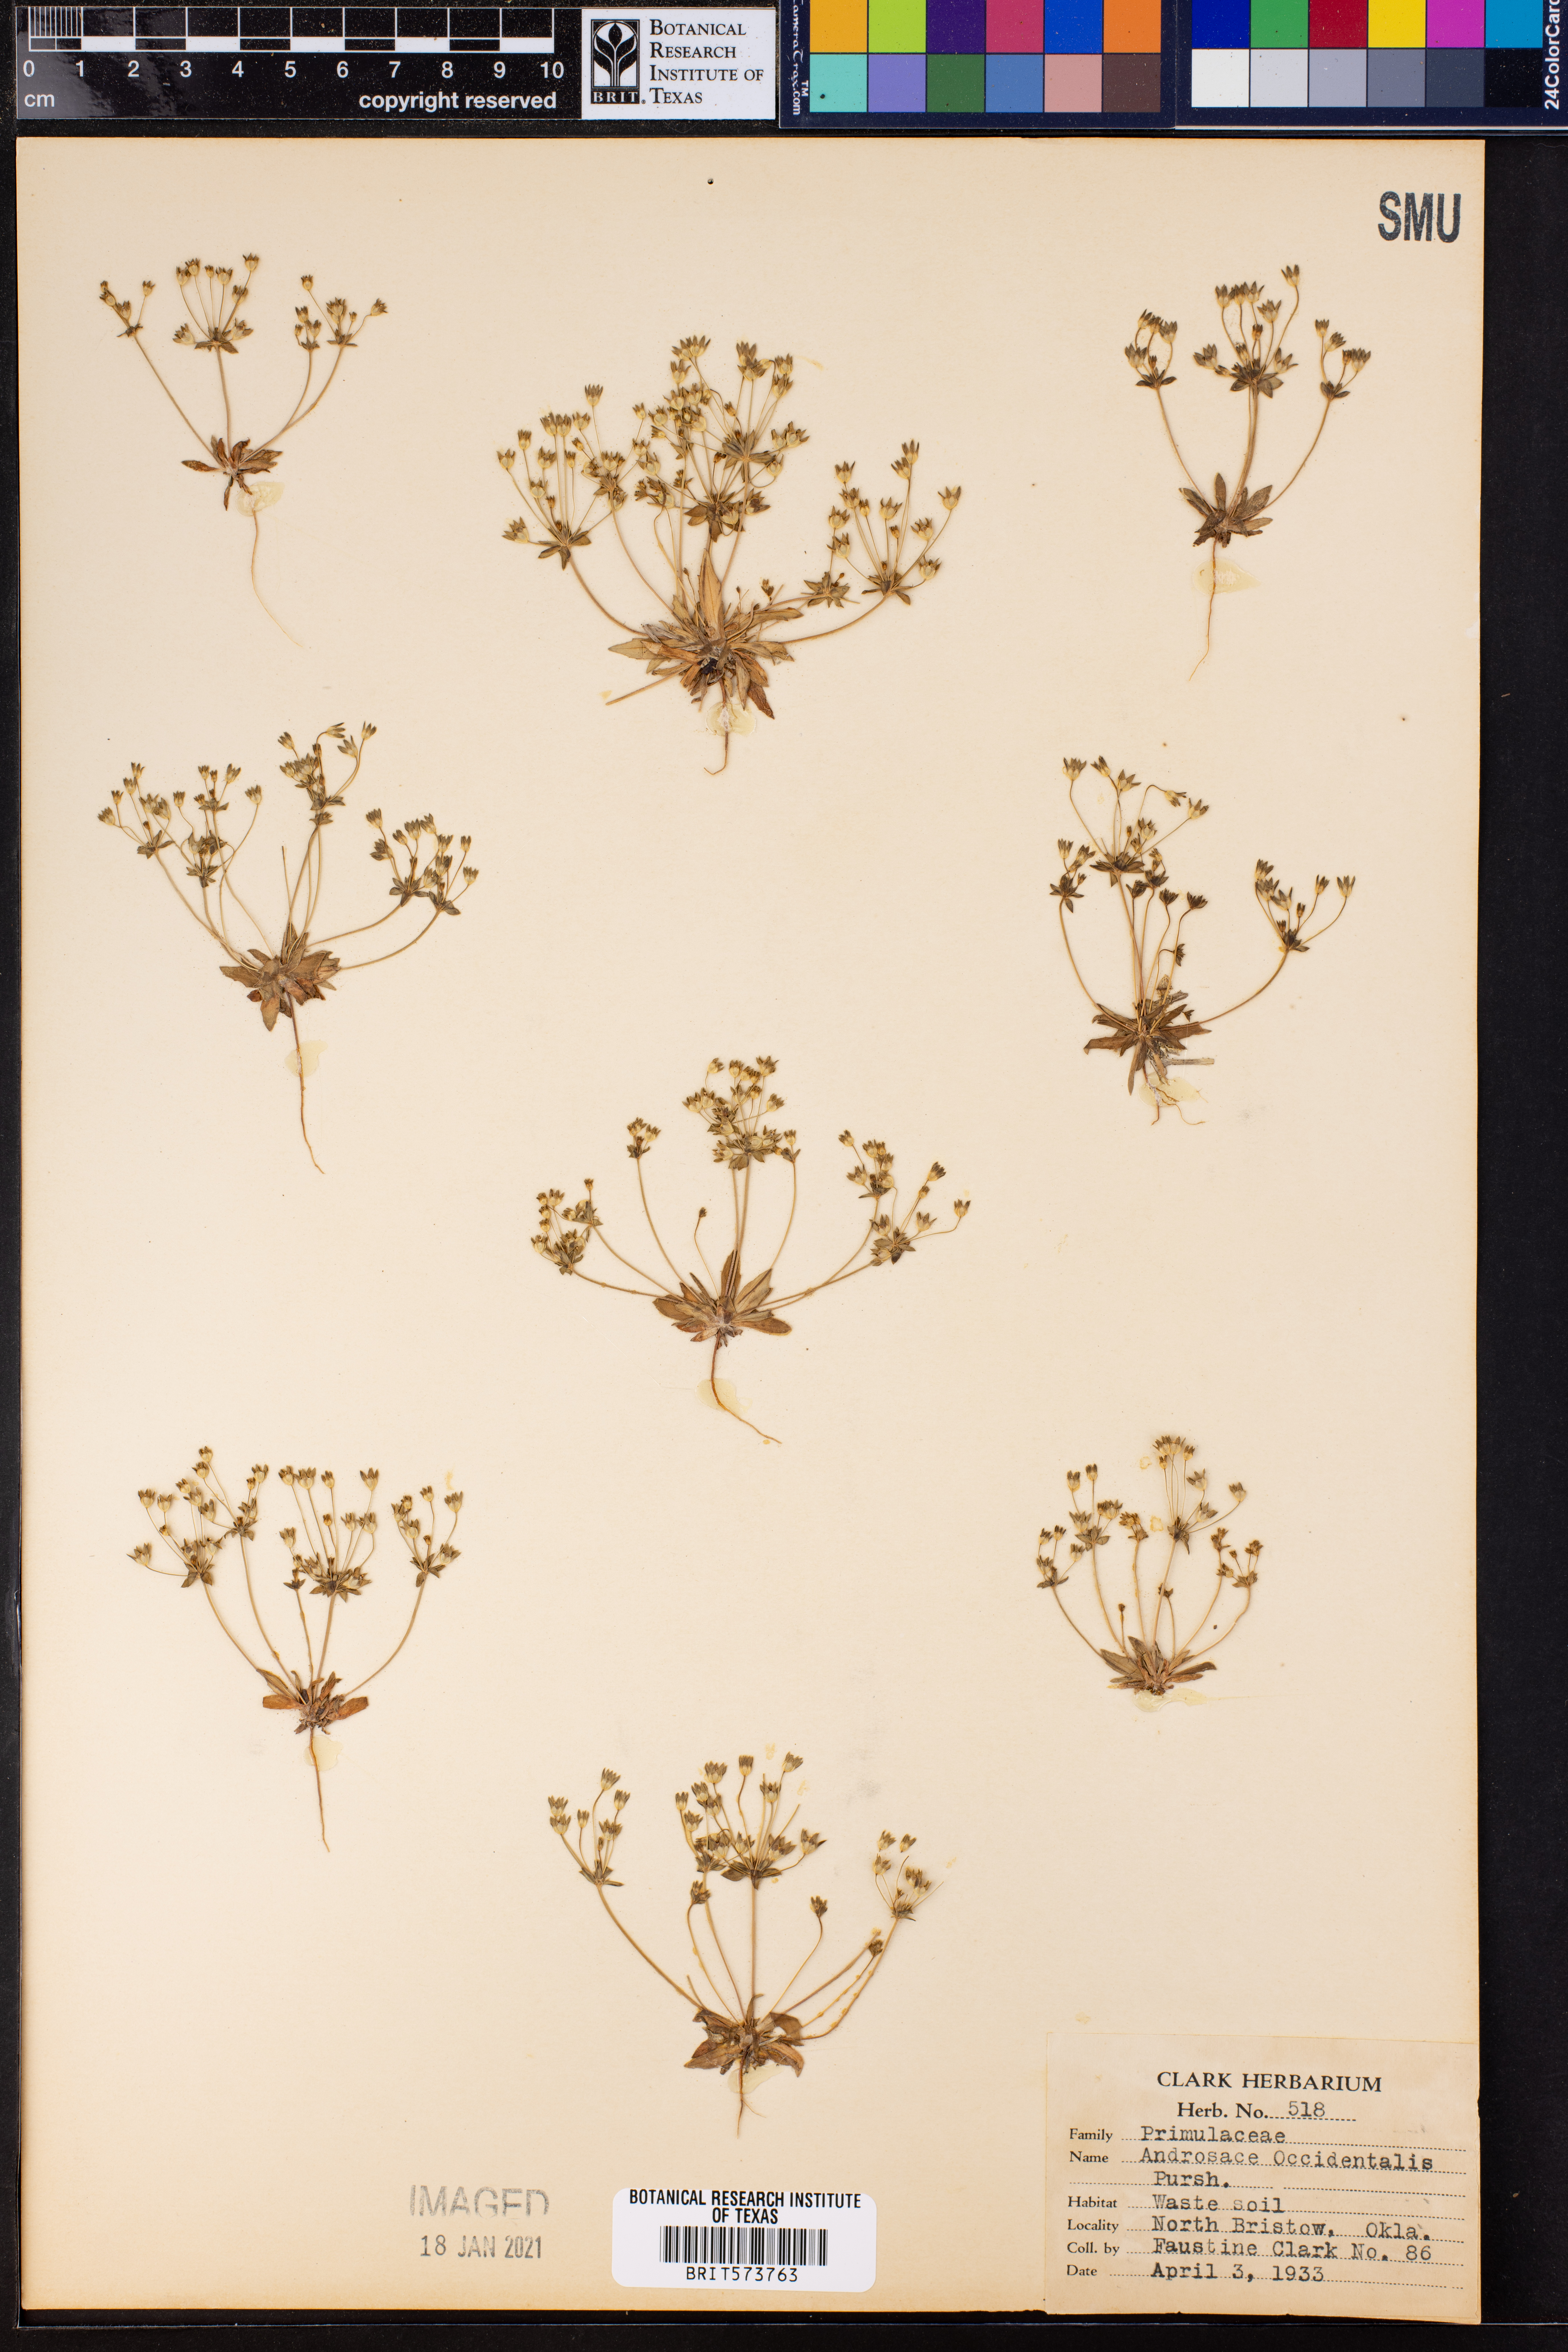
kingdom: Plantae
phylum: Tracheophyta
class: Magnoliopsida
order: Ericales
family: Primulaceae
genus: Androsace
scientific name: Androsace occidentalis
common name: West rock-jasmine
